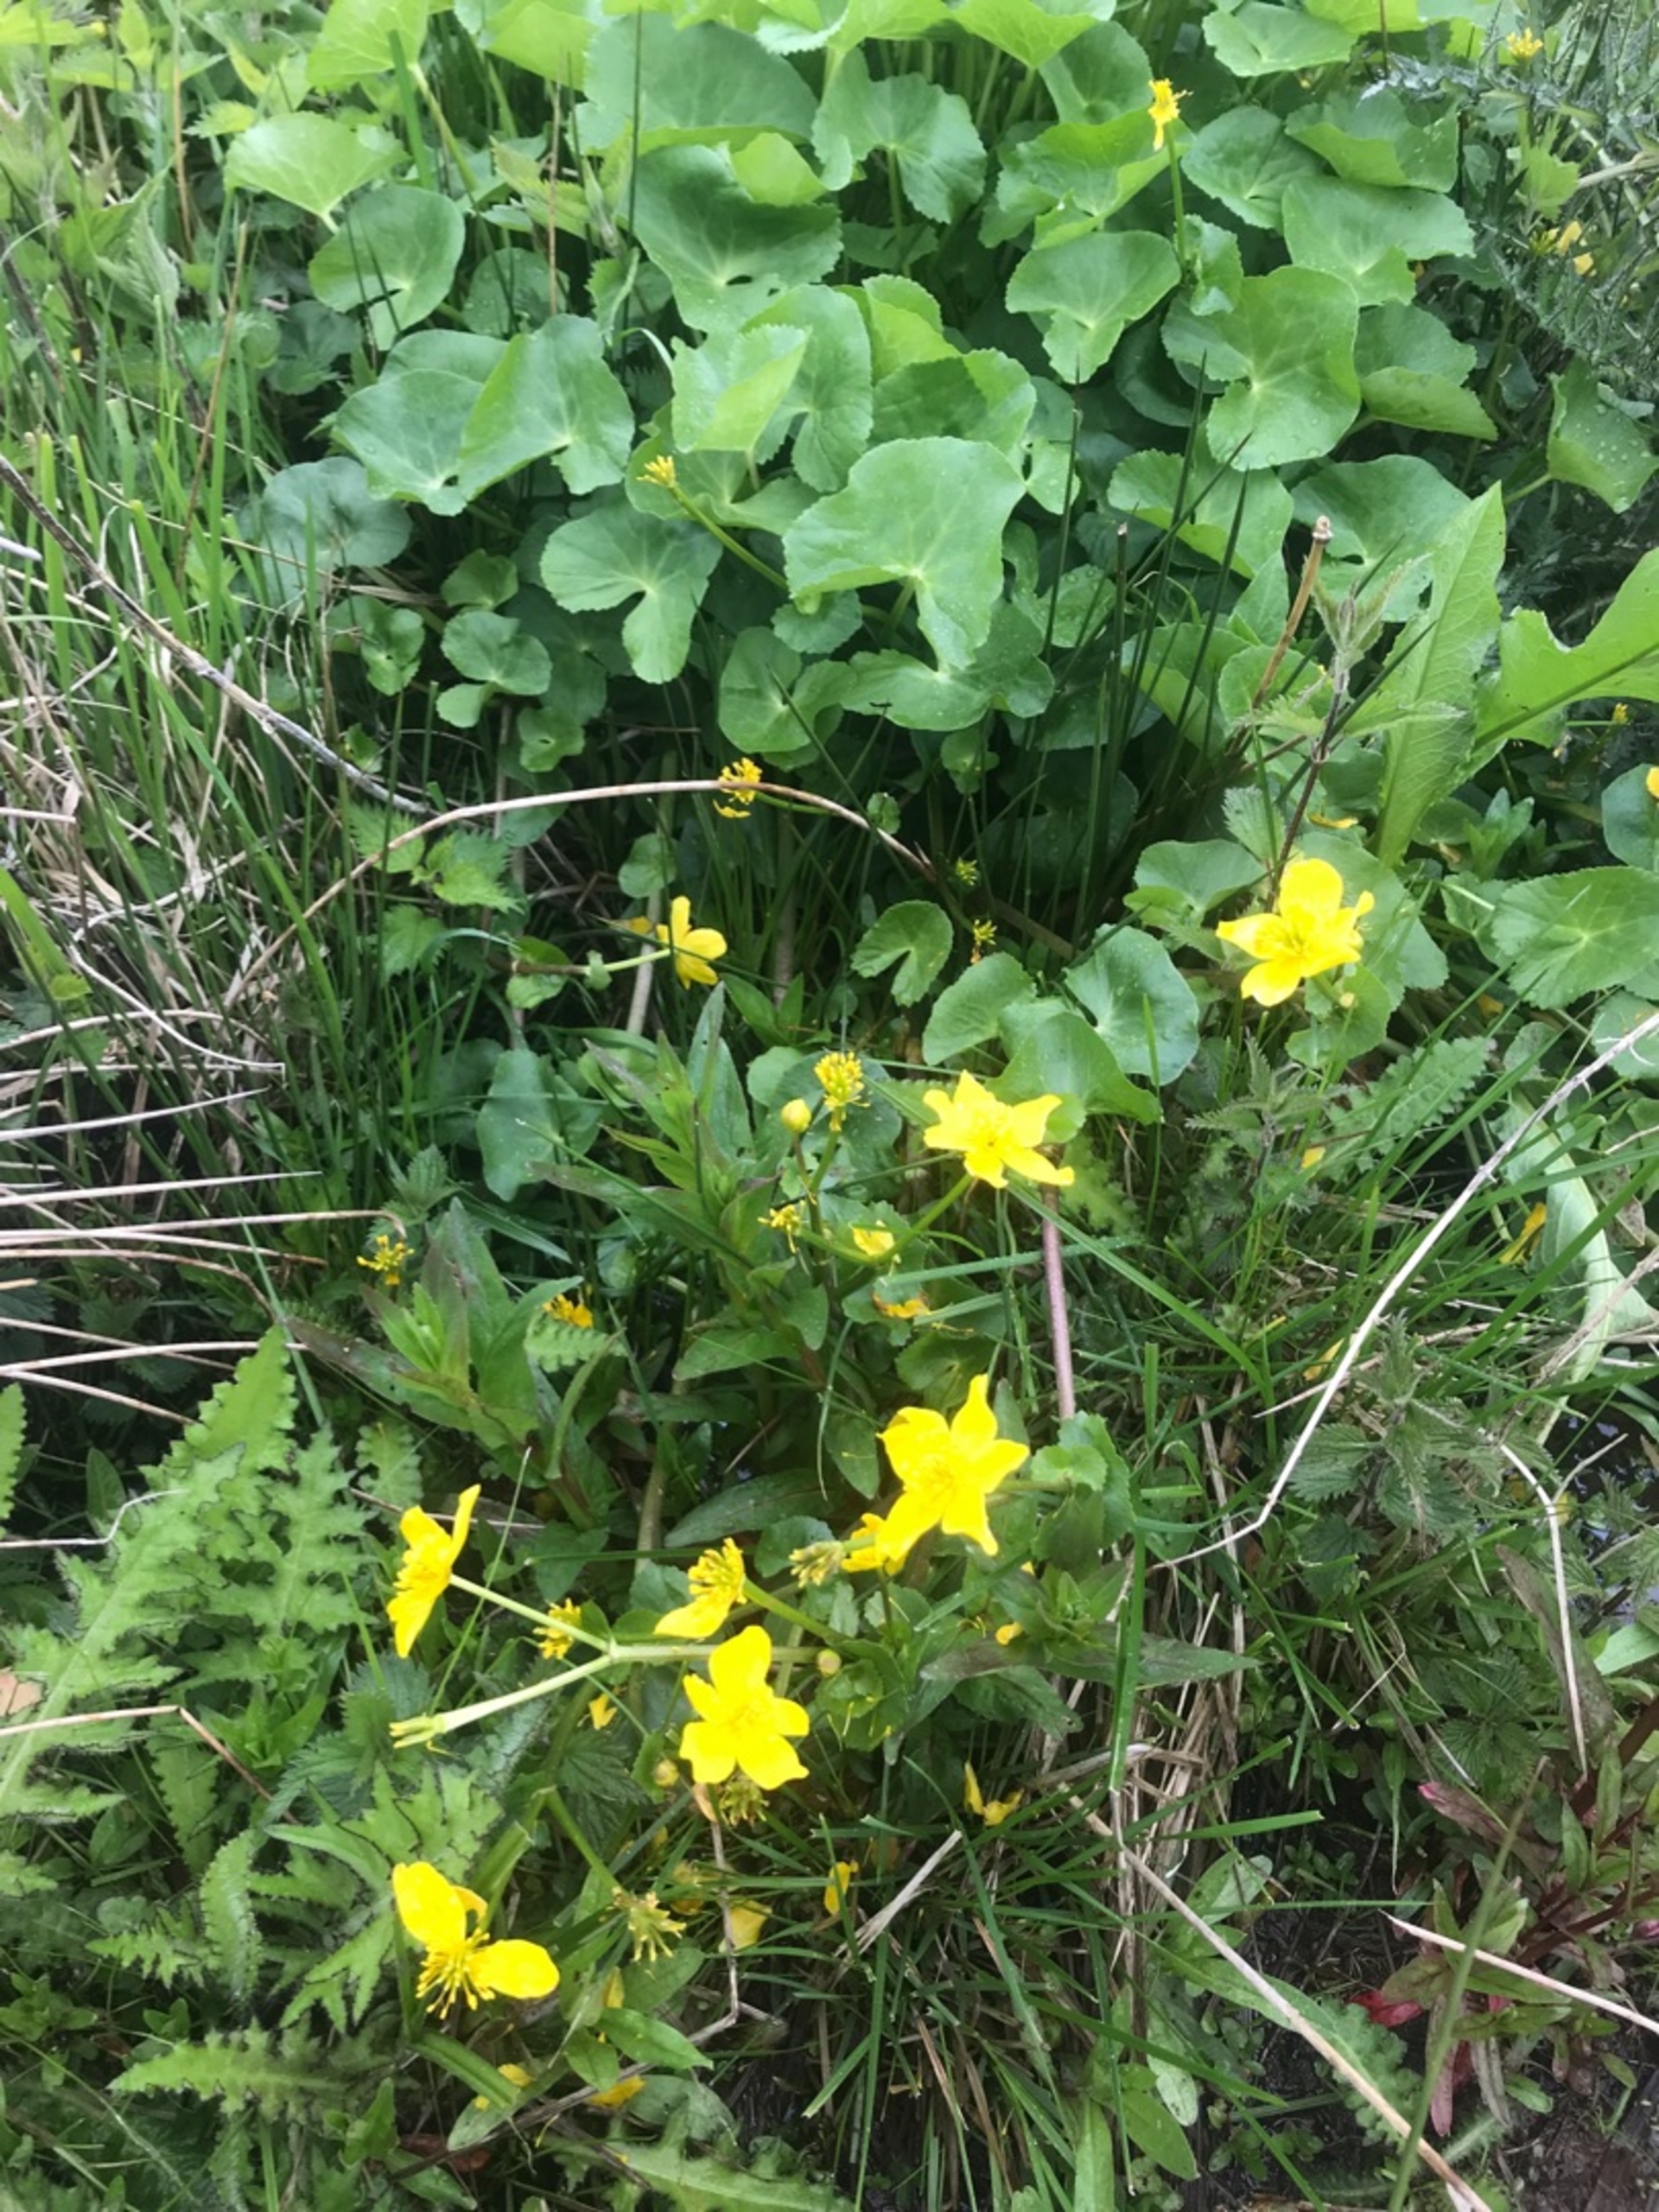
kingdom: Plantae
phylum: Tracheophyta
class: Magnoliopsida
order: Ranunculales
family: Ranunculaceae
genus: Caltha
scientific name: Caltha palustris
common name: Eng-kabbeleje
